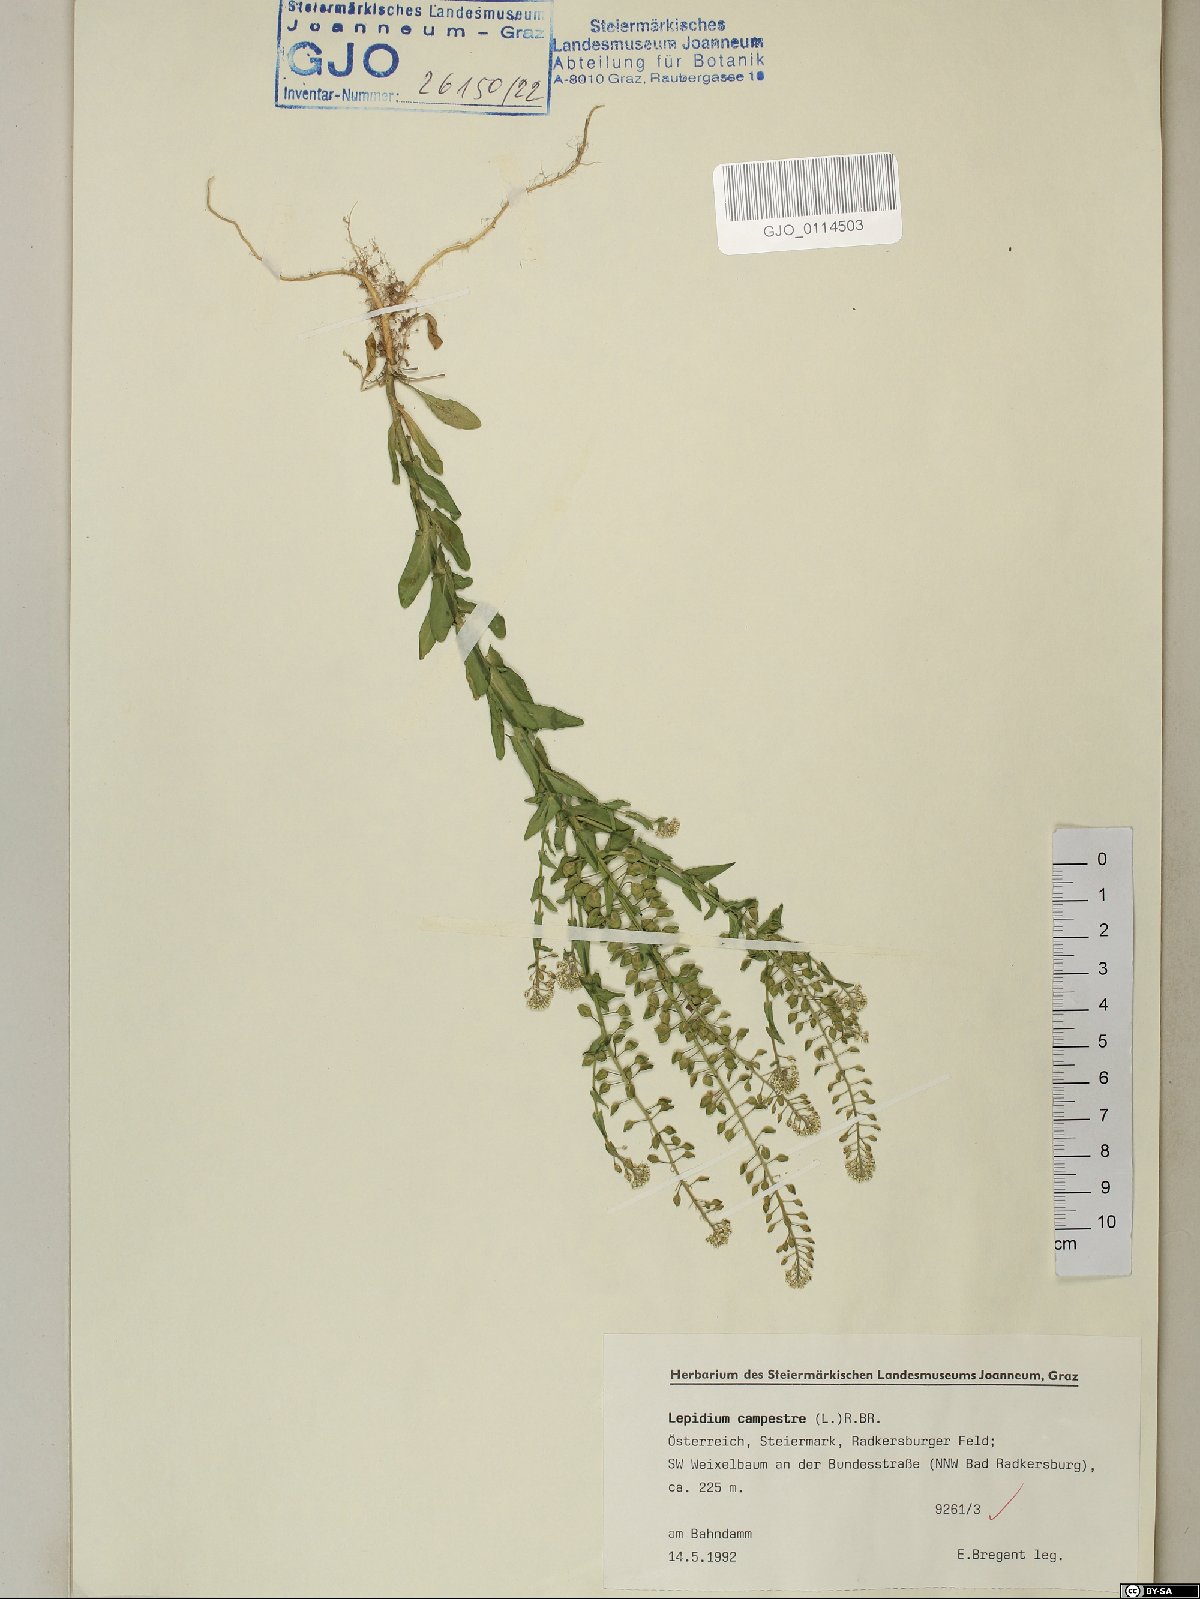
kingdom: Plantae
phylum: Tracheophyta
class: Magnoliopsida
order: Brassicales
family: Brassicaceae
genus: Lepidium
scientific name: Lepidium campestre
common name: Field pepperwort
